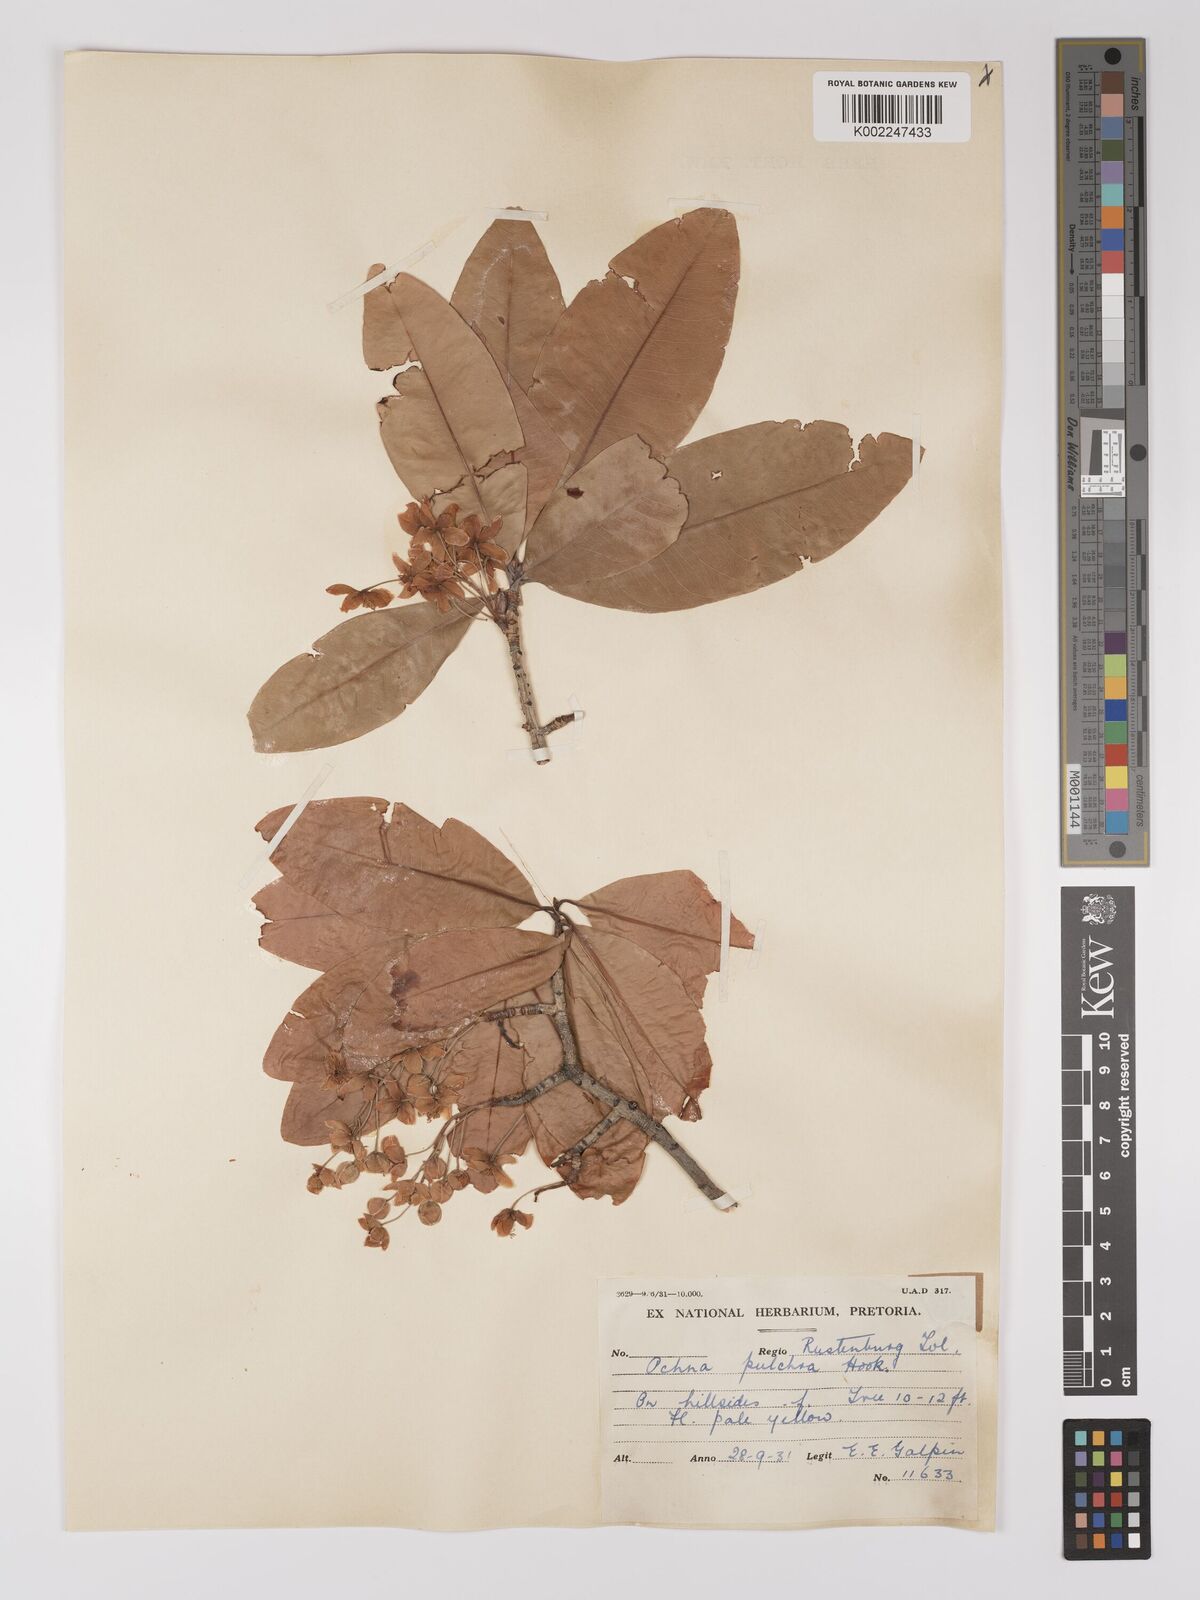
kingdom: Plantae
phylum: Tracheophyta
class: Magnoliopsida
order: Malpighiales
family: Ochnaceae
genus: Ochna
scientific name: Ochna pulchra
